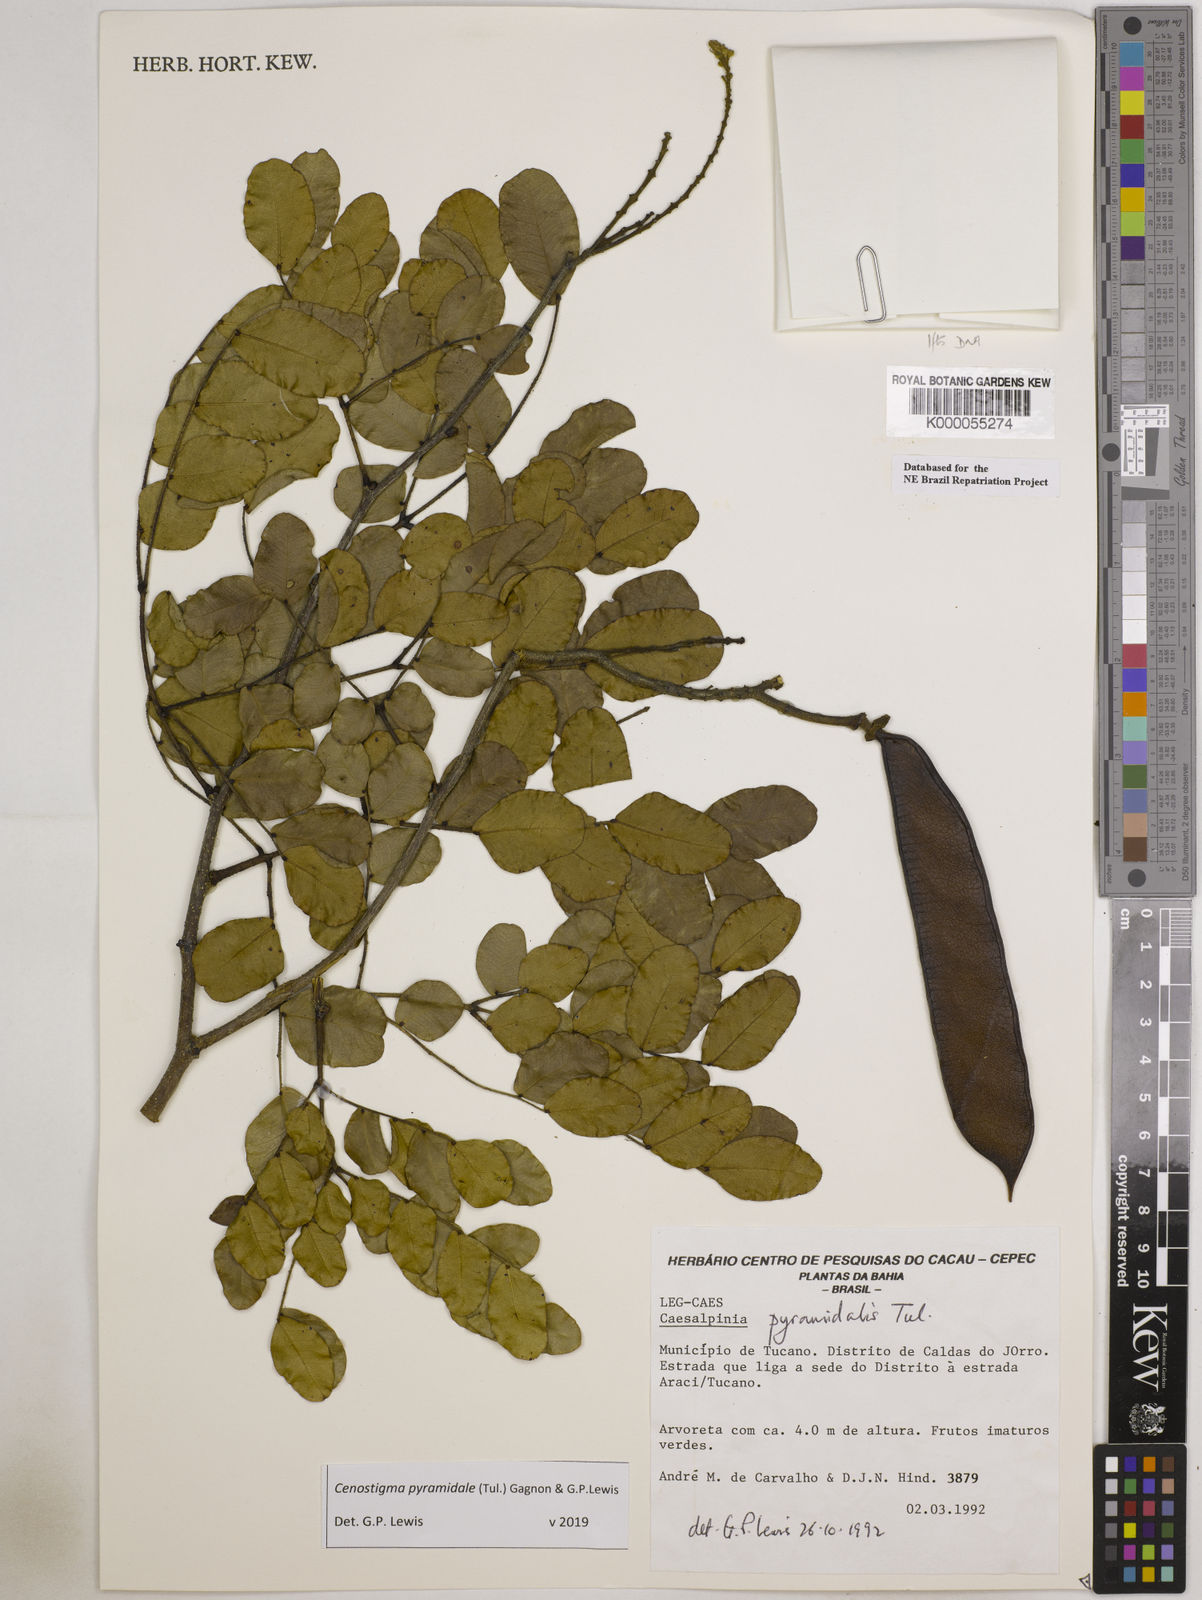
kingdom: Plantae
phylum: Tracheophyta
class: Magnoliopsida
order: Fabales
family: Fabaceae
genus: Cenostigma
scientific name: Cenostigma pyramidale
